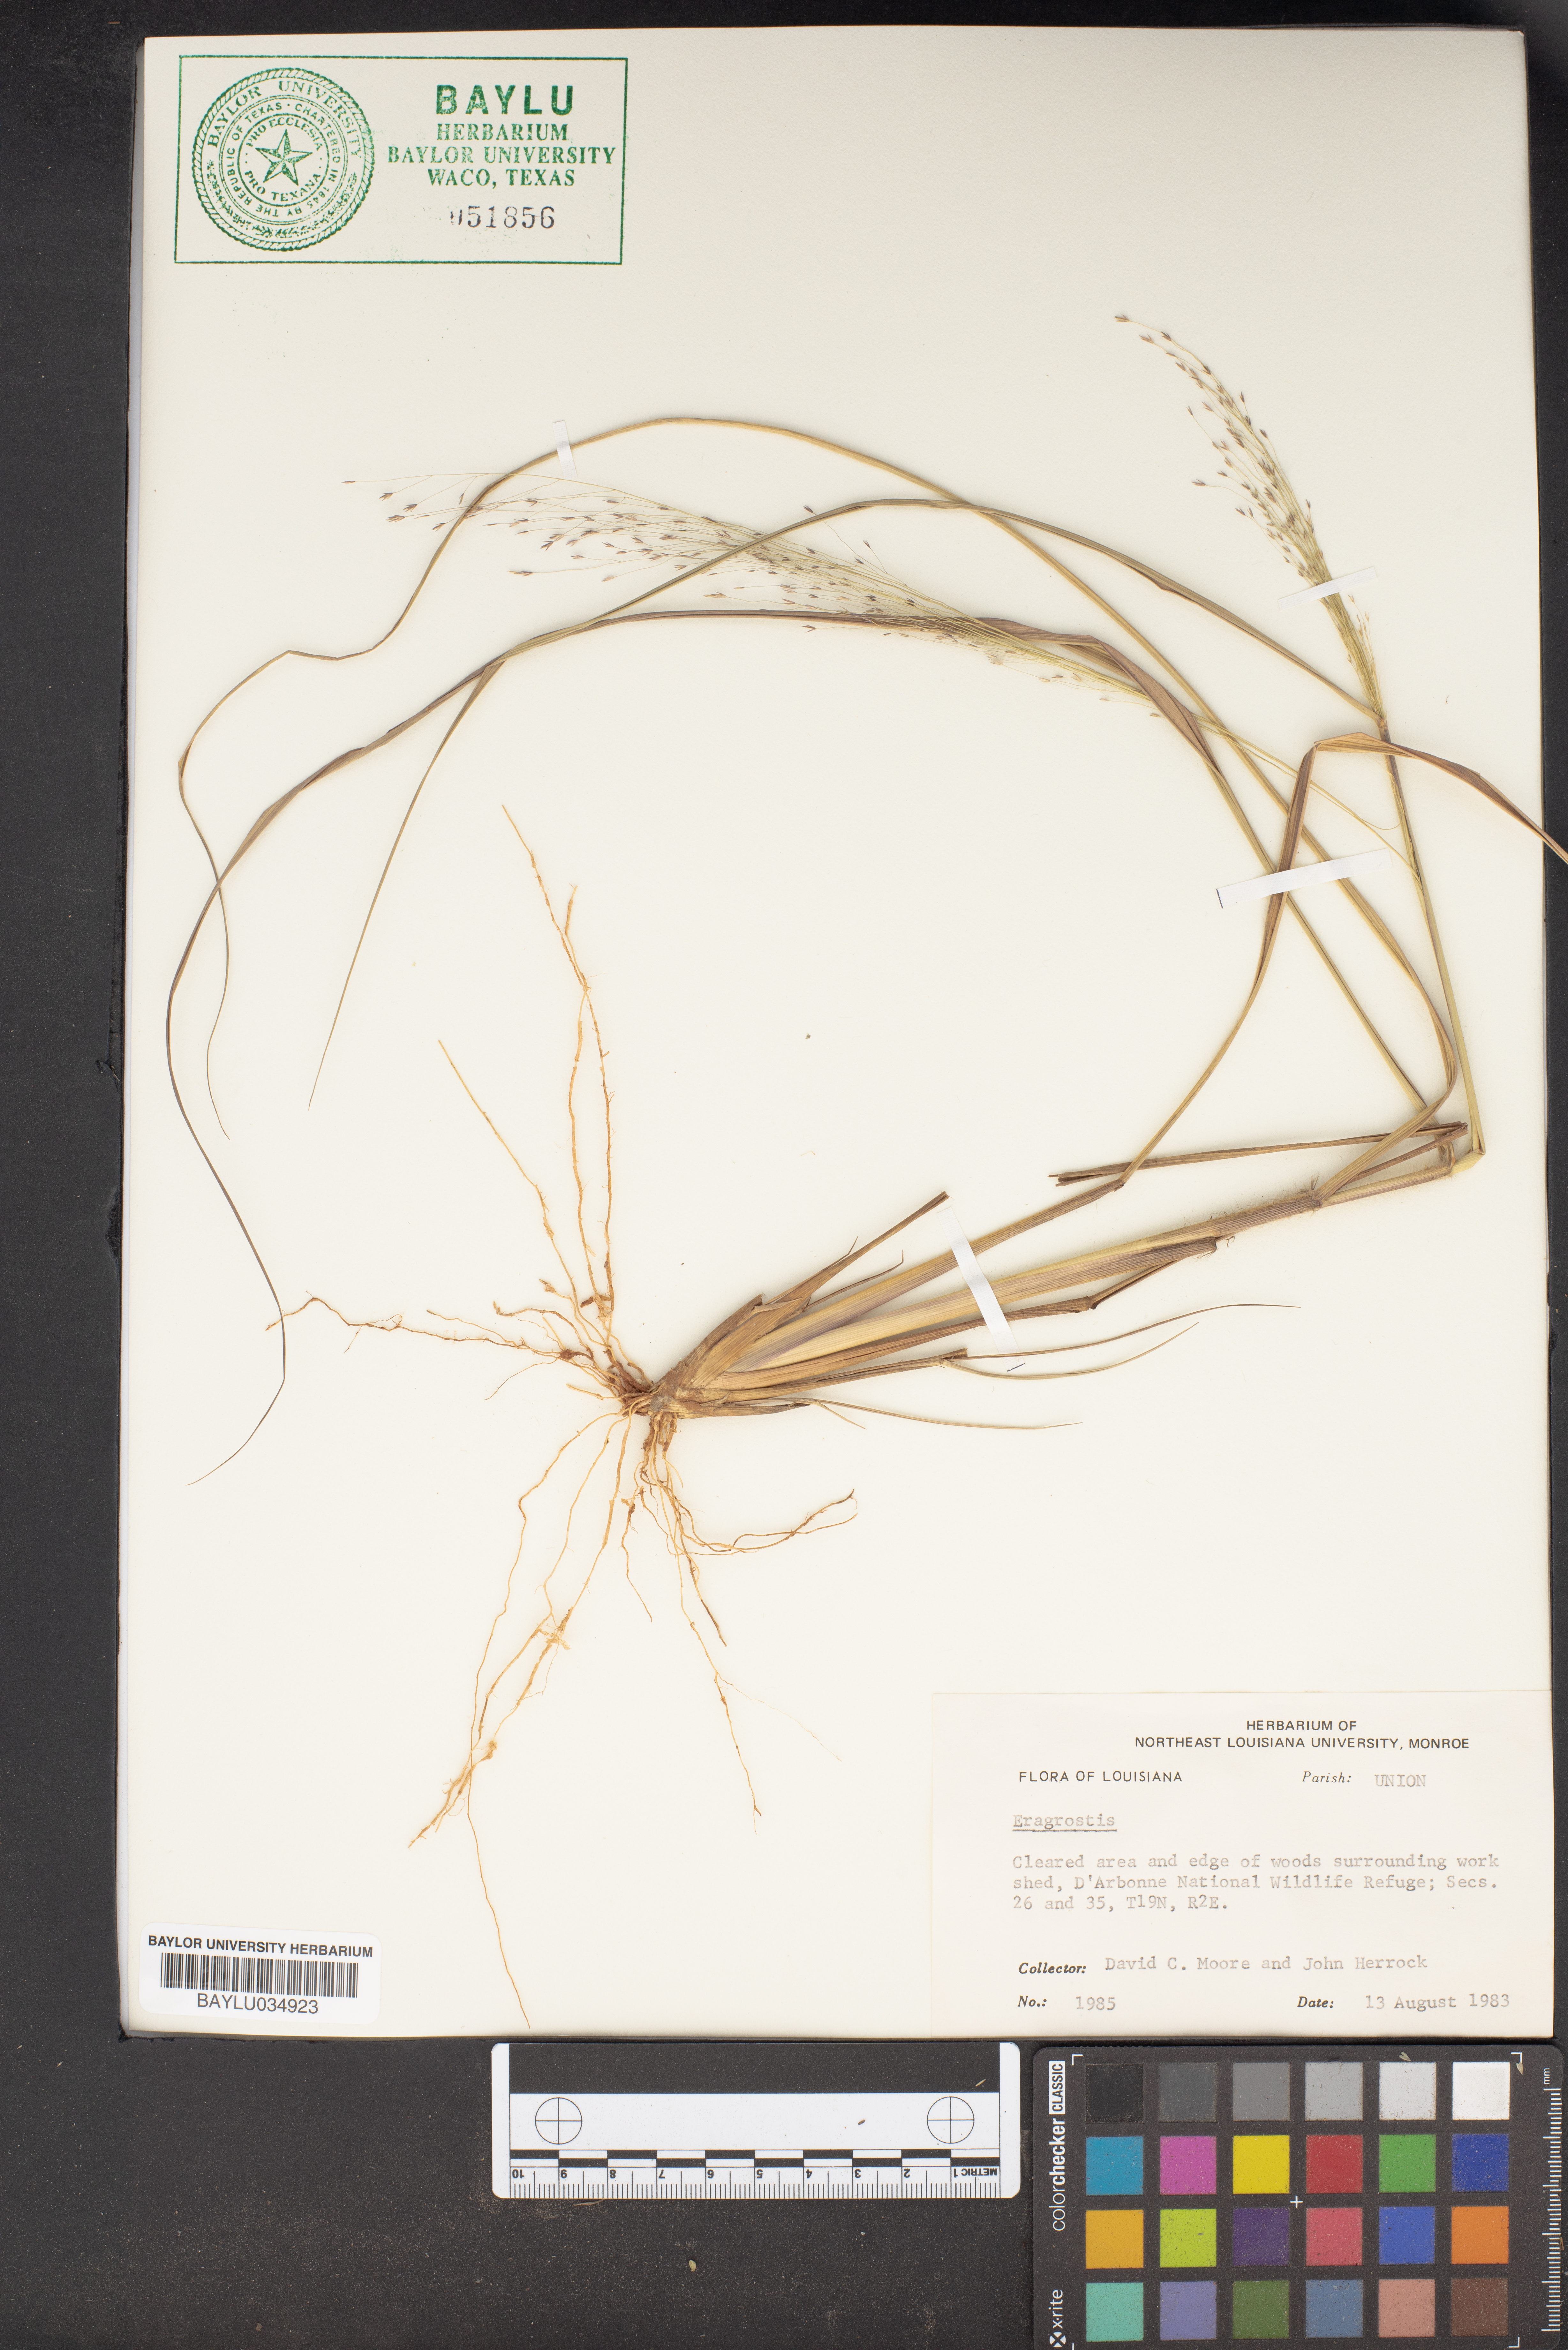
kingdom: Plantae
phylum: Tracheophyta
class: Liliopsida
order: Poales
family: Poaceae
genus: Eragrostis
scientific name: Eragrostis
